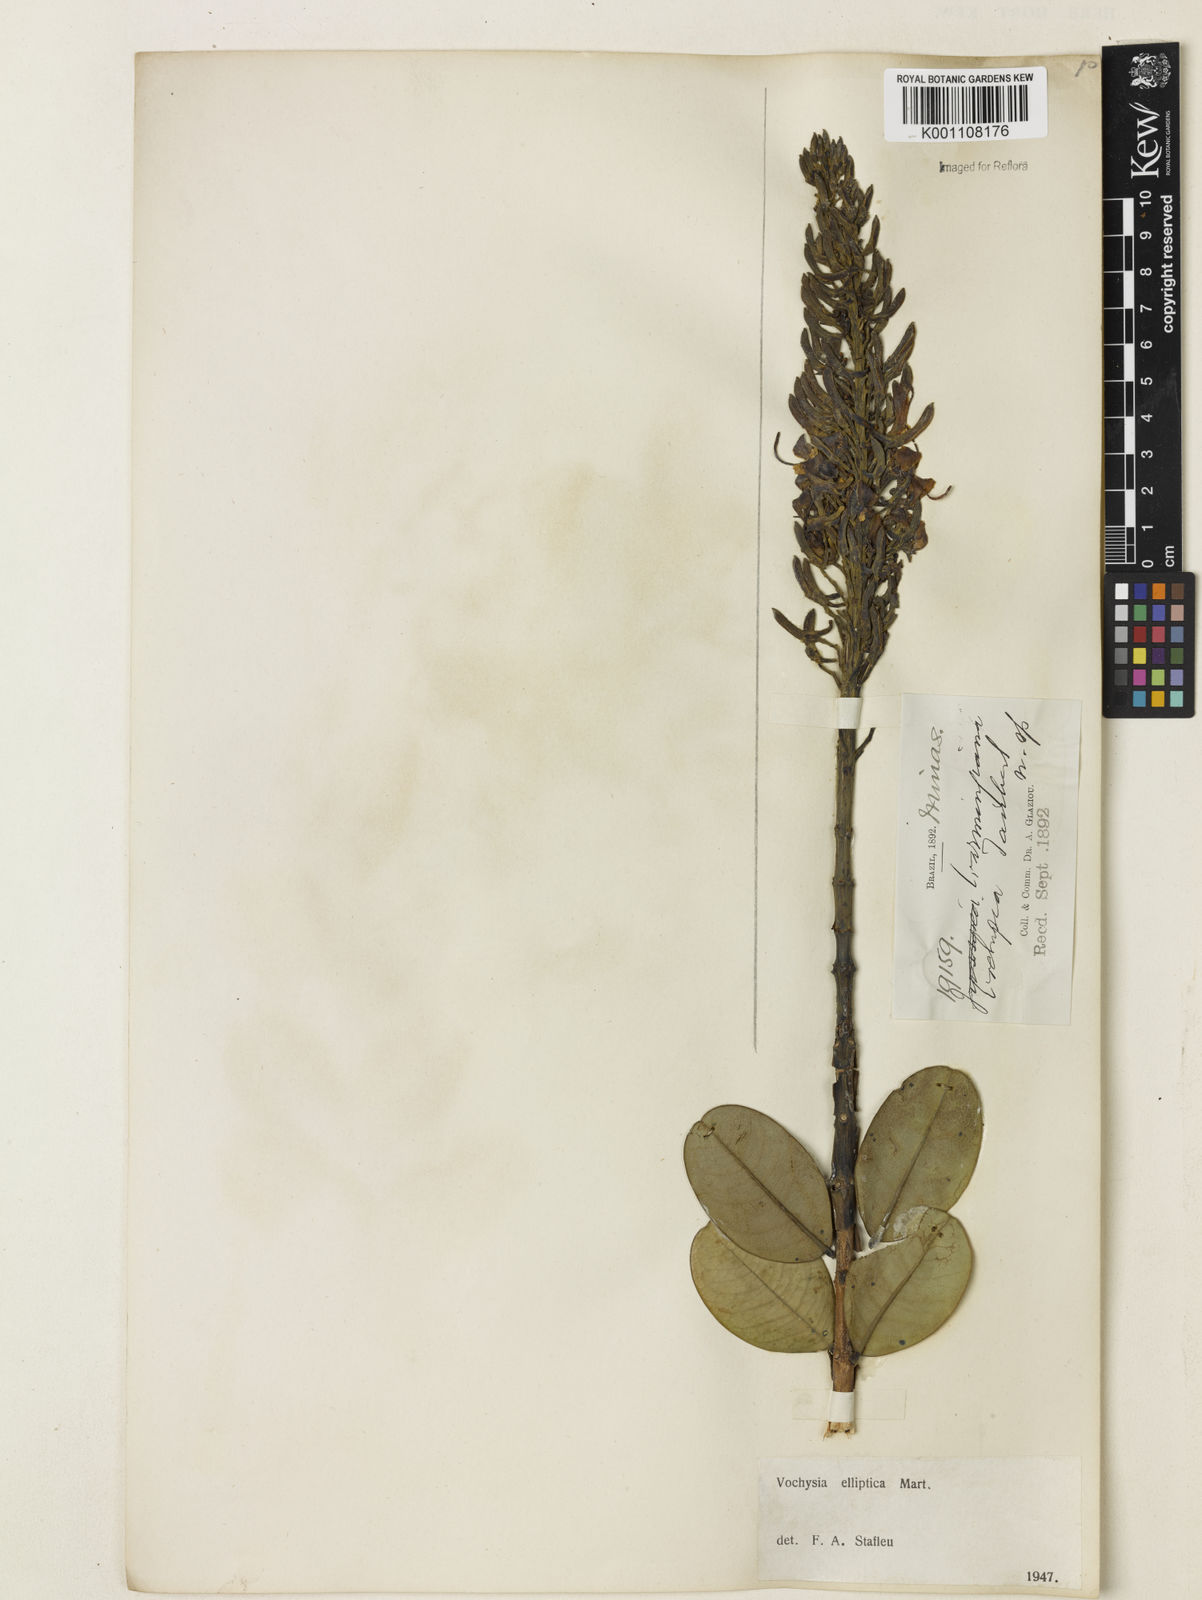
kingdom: Plantae
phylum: Tracheophyta
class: Magnoliopsida
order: Myrtales
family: Vochysiaceae
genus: Vochysia
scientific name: Vochysia elliptica
